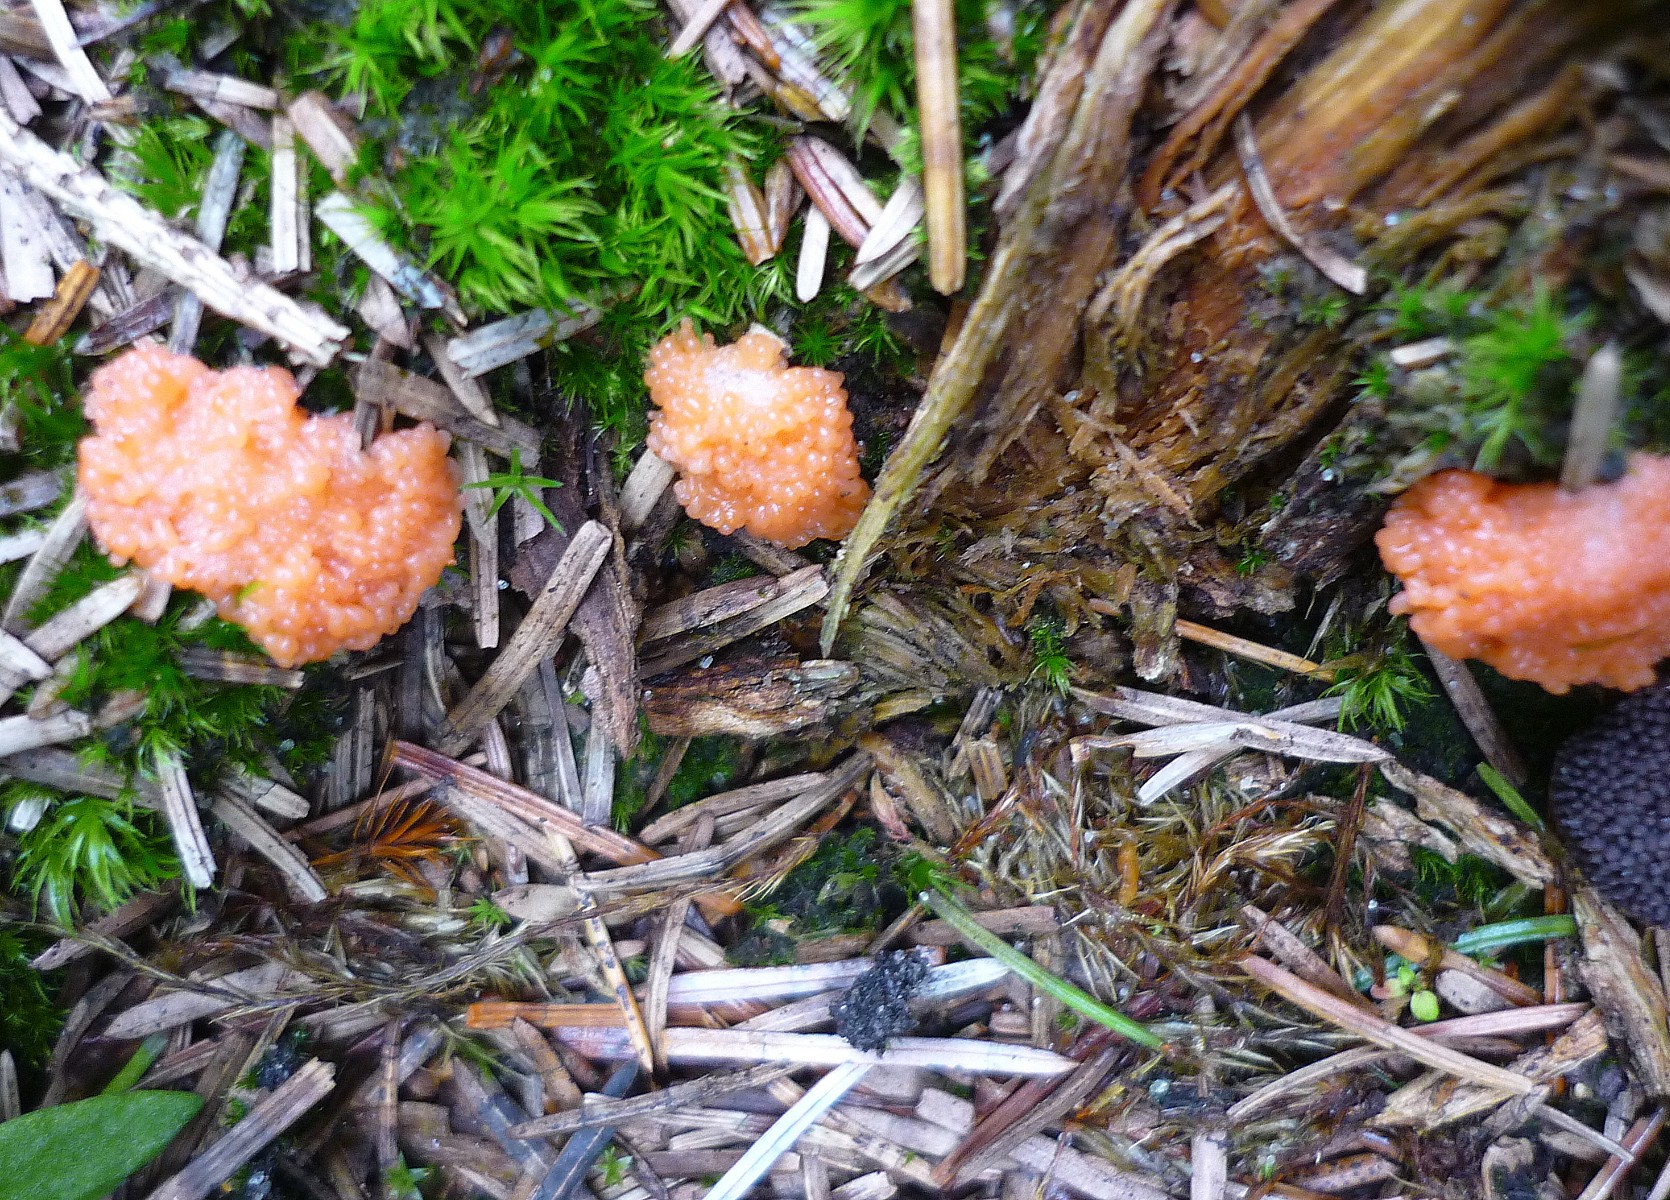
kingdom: Protozoa
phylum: Mycetozoa
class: Myxomycetes
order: Cribrariales
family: Tubiferaceae
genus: Tubifera
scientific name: Tubifera ferruginosa
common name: kanel-støvrør
